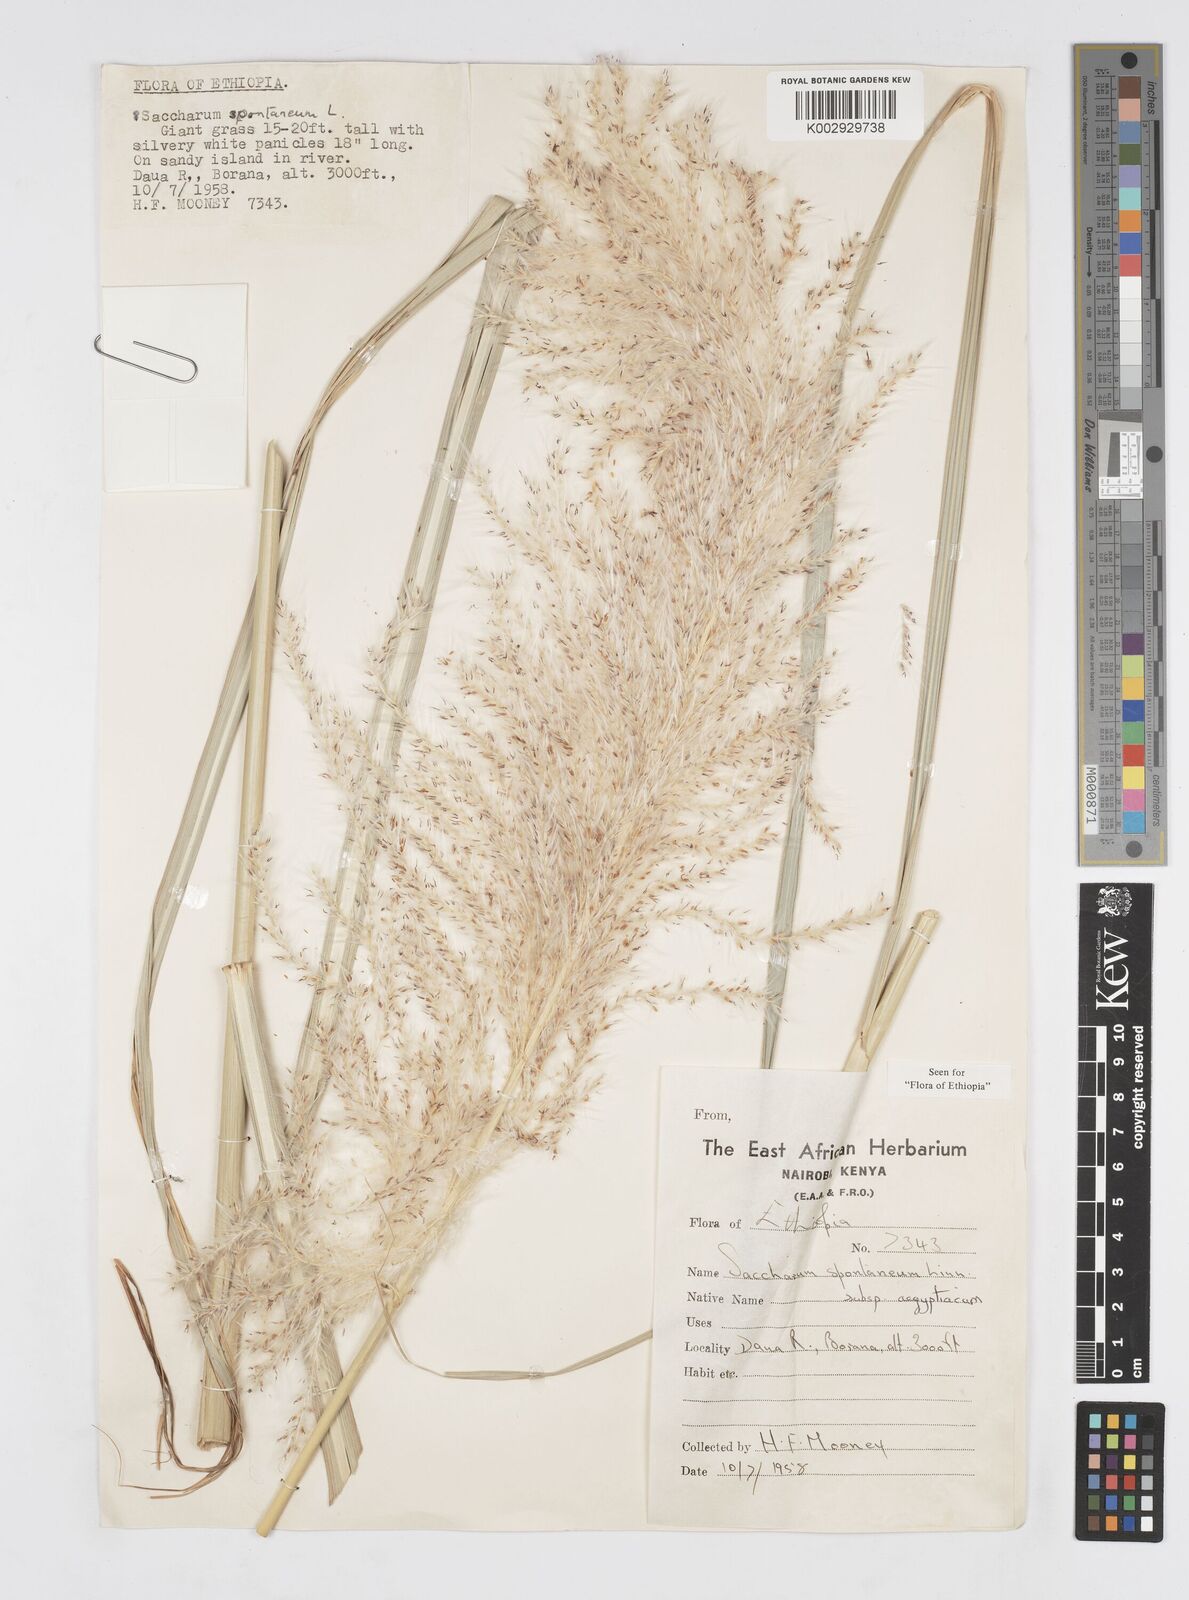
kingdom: Plantae
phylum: Tracheophyta
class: Liliopsida
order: Poales
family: Poaceae
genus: Saccharum
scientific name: Saccharum spontaneum
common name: Wild sugarcane
